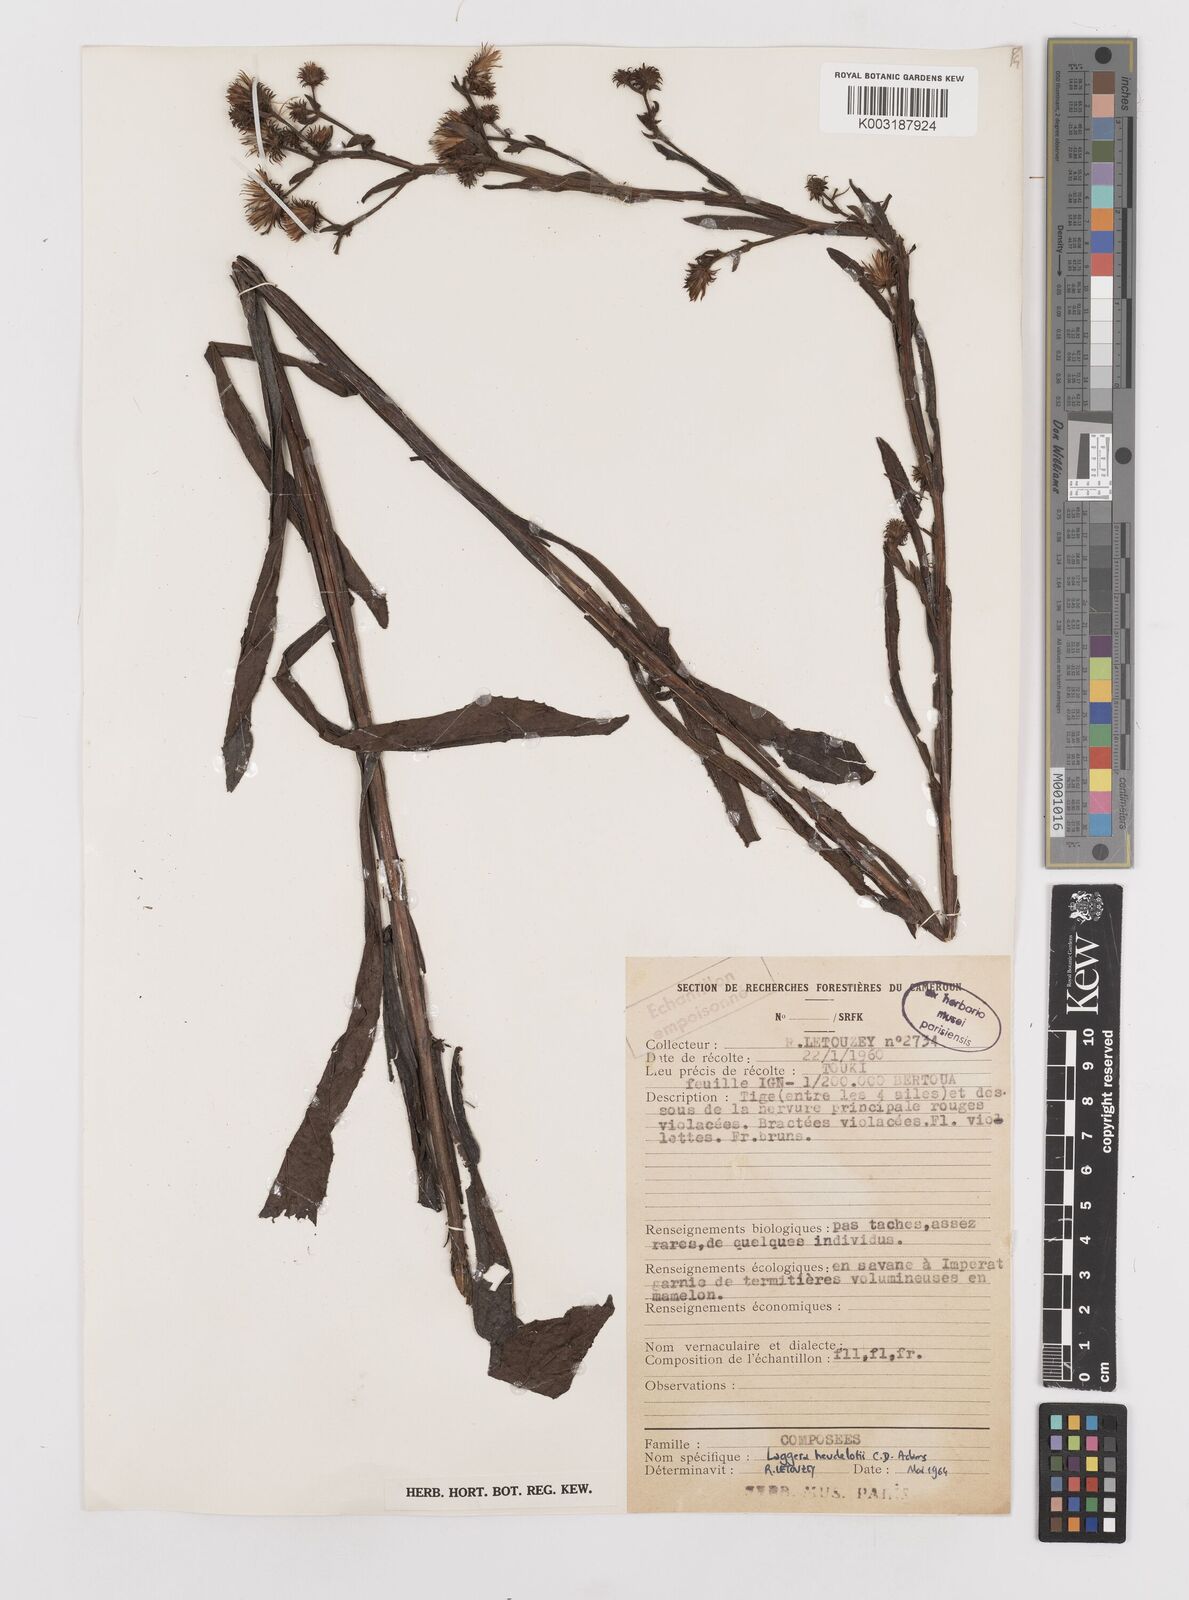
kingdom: Plantae
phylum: Tracheophyta
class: Magnoliopsida
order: Asterales
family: Asteraceae
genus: Laggera
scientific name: Laggera heudelotii
